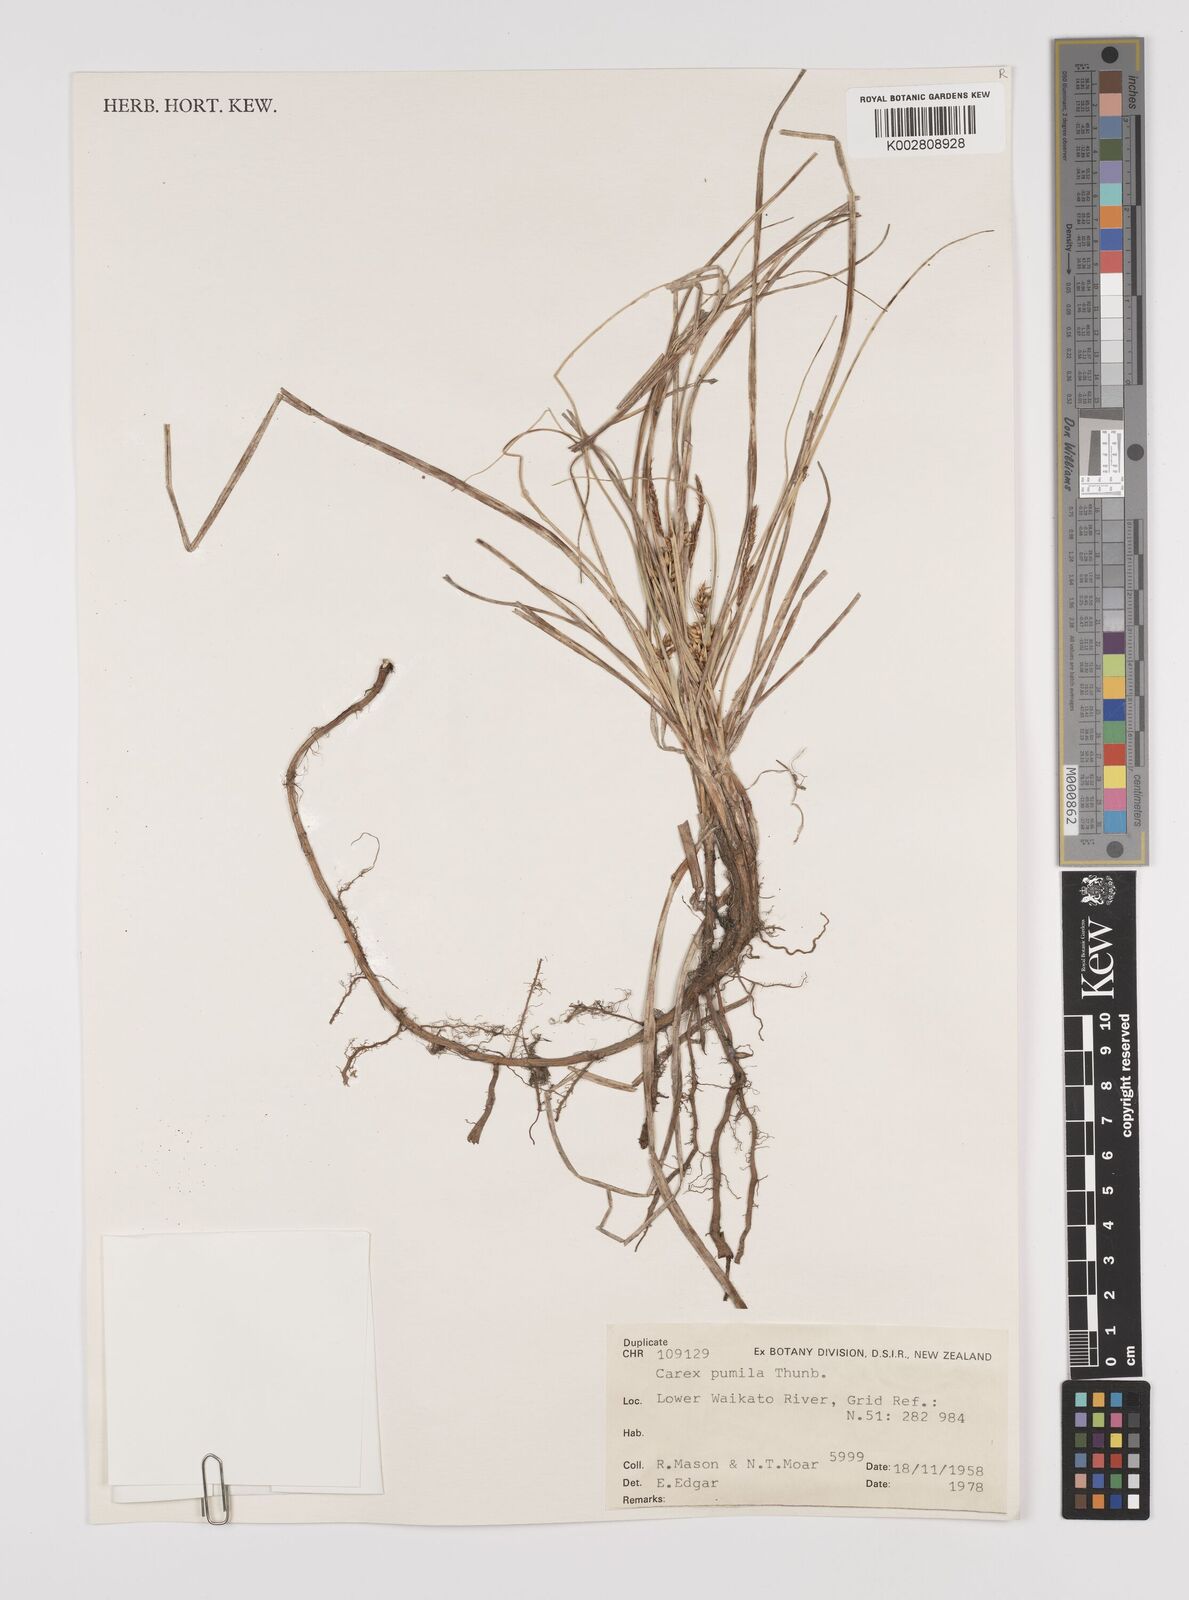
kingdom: Plantae
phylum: Tracheophyta
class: Liliopsida
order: Poales
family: Cyperaceae
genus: Carex
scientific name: Carex pumila
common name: Dwarf sedge
